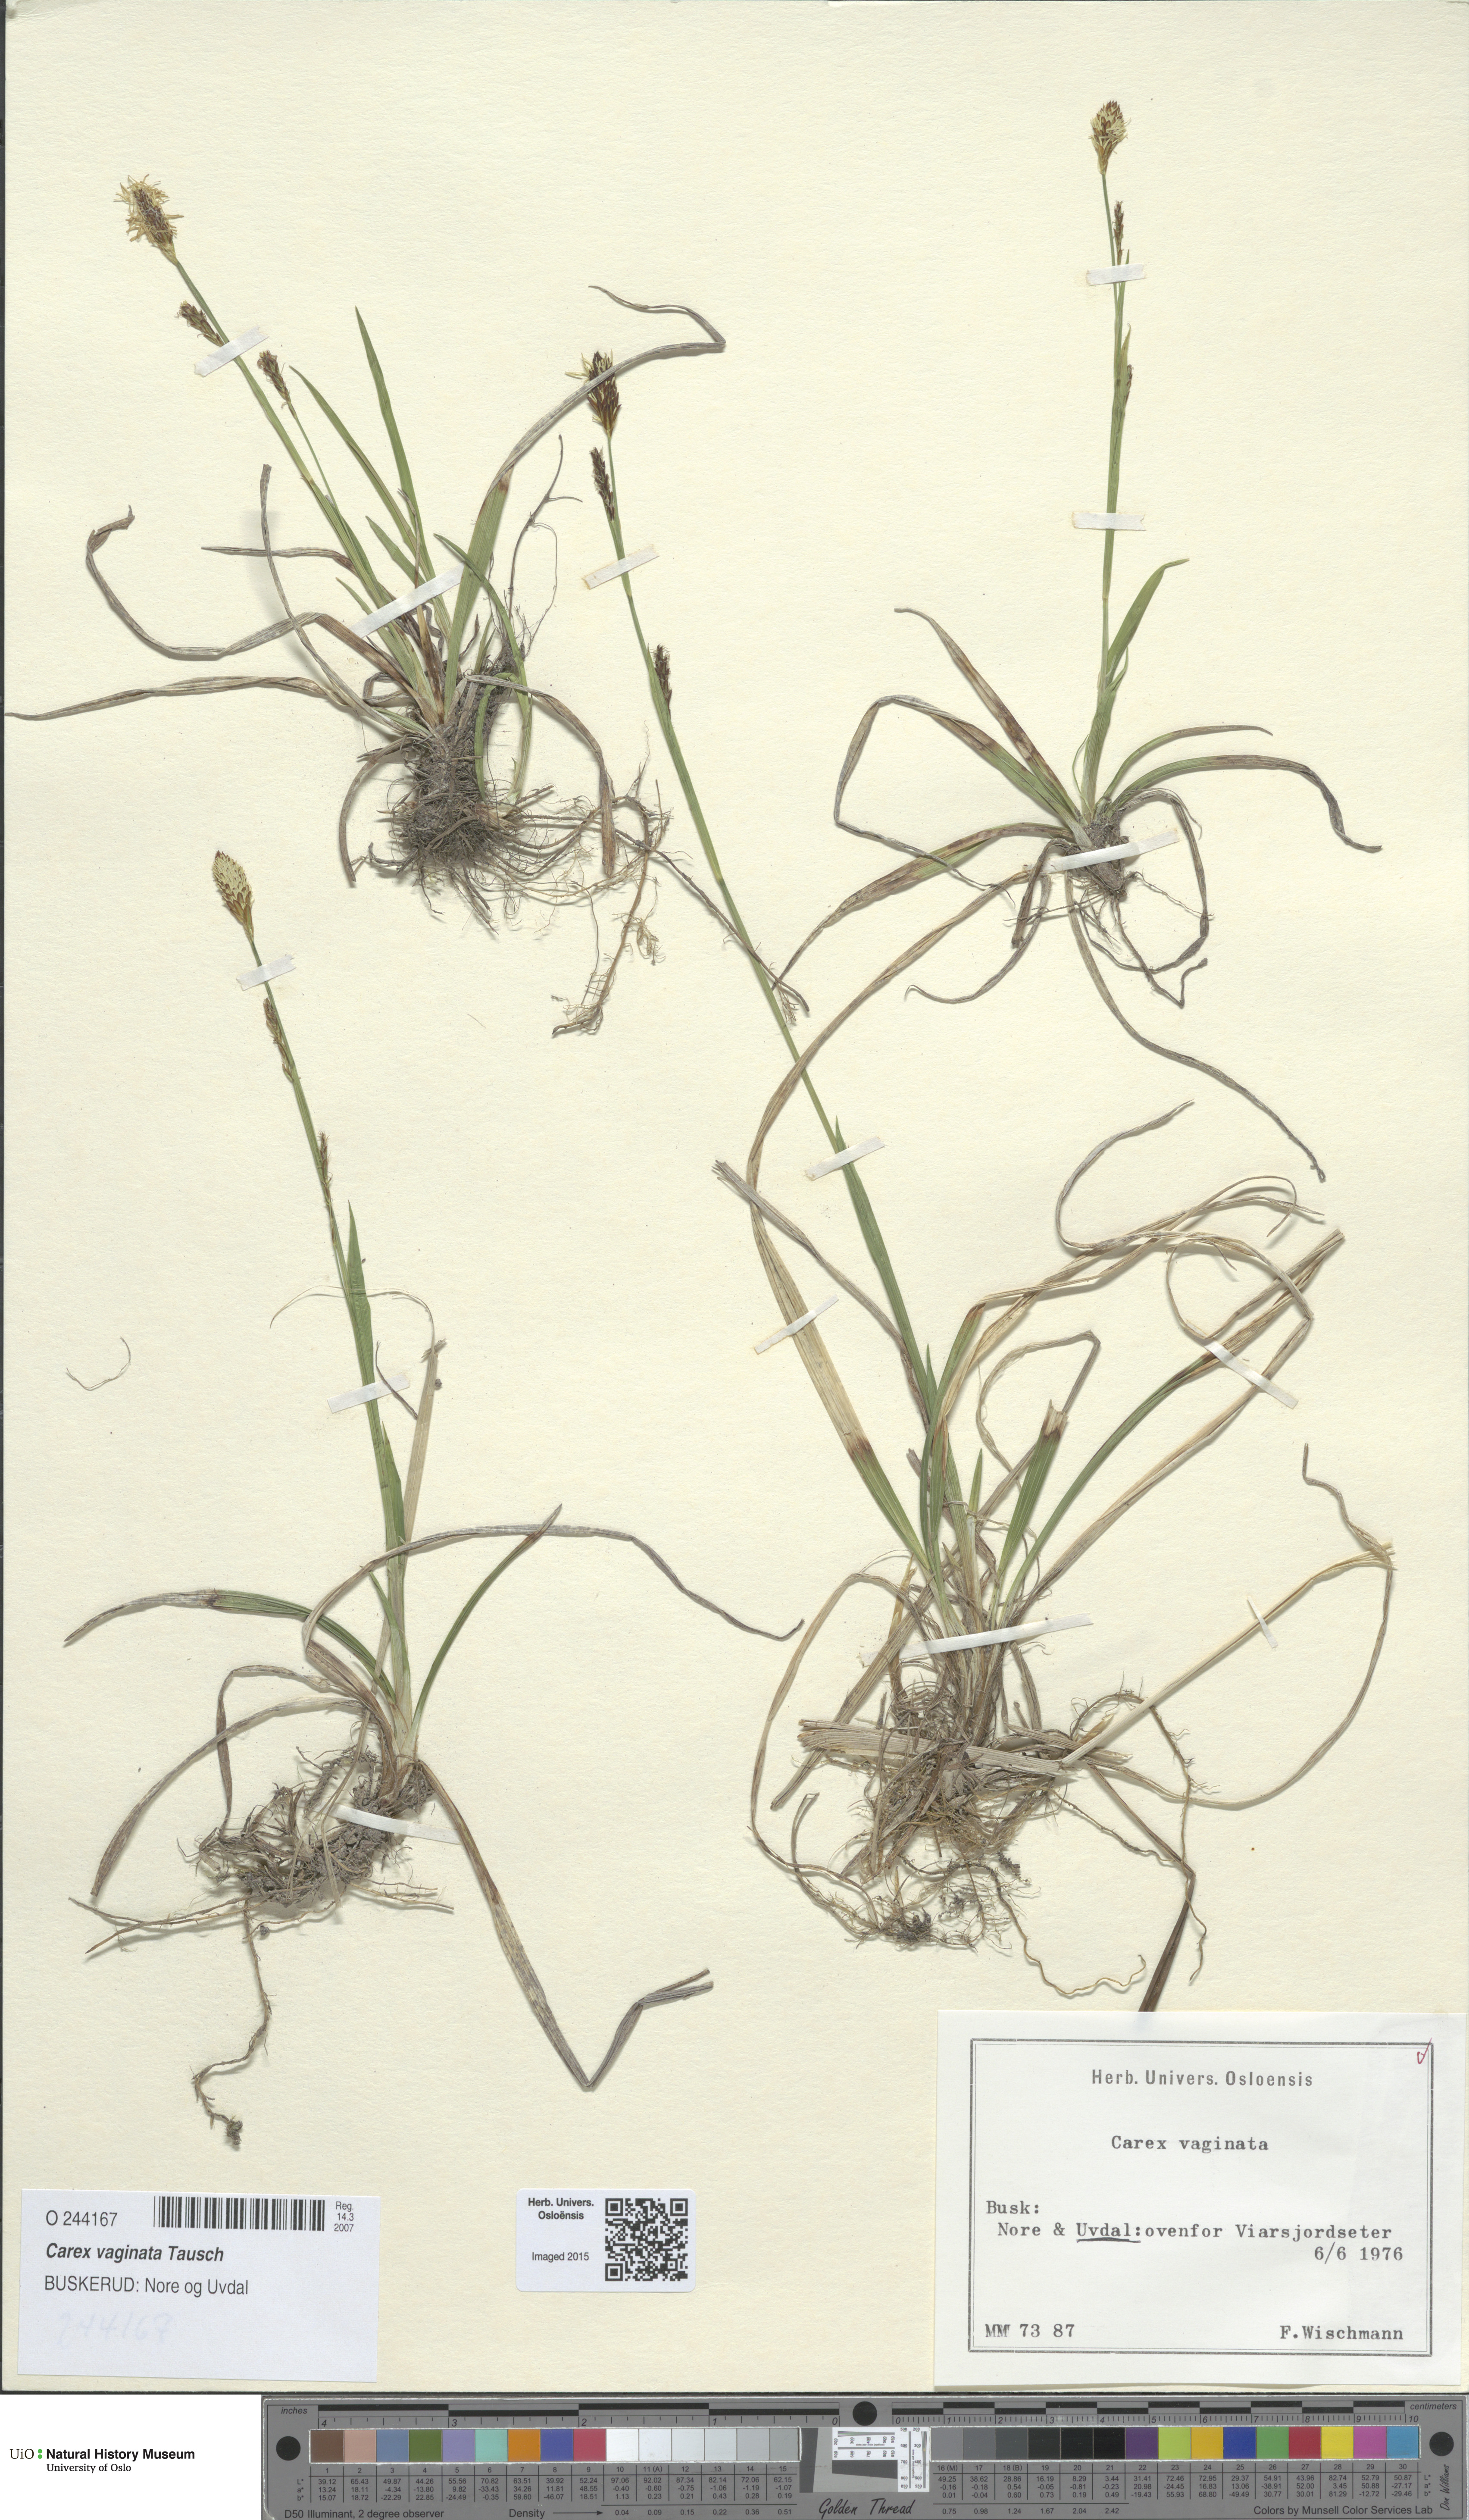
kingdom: Plantae
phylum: Tracheophyta
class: Liliopsida
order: Poales
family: Cyperaceae
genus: Carex
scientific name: Carex vaginata
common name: Sheathed sedge
